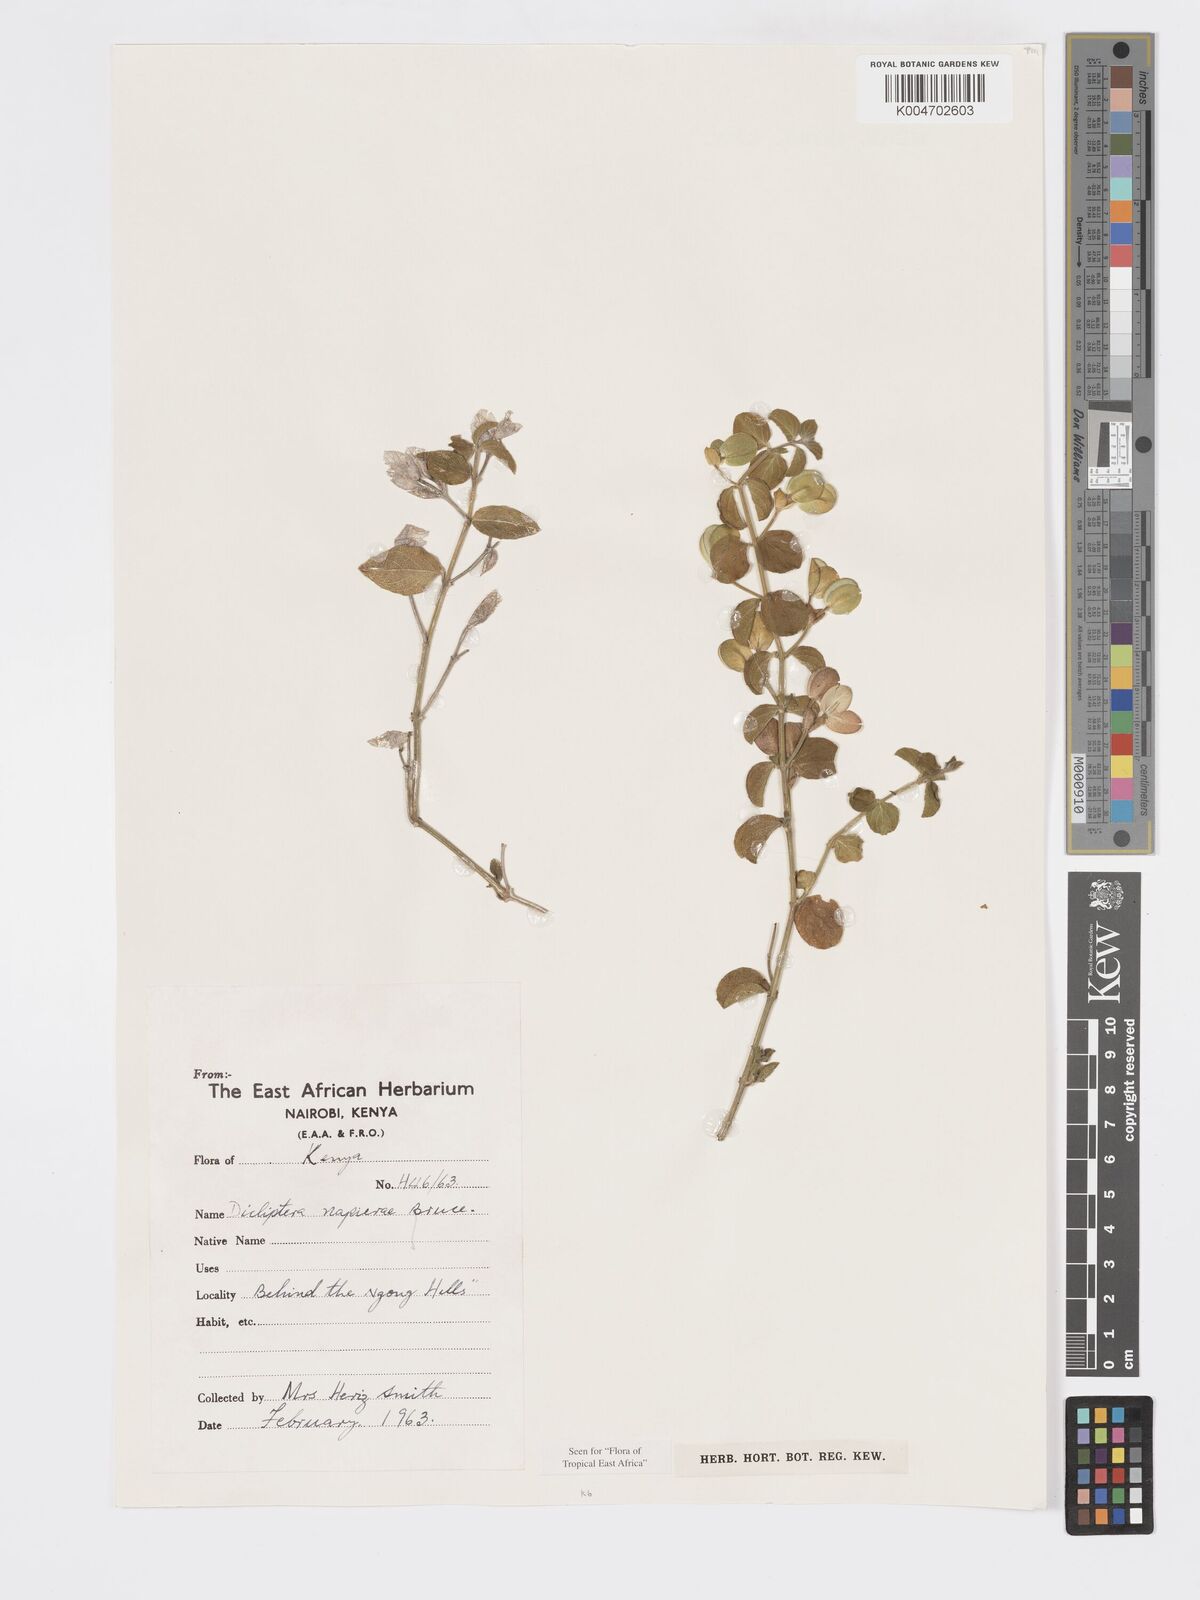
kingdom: Plantae
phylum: Tracheophyta
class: Magnoliopsida
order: Lamiales
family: Acanthaceae
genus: Dicliptera
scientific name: Dicliptera napierae
